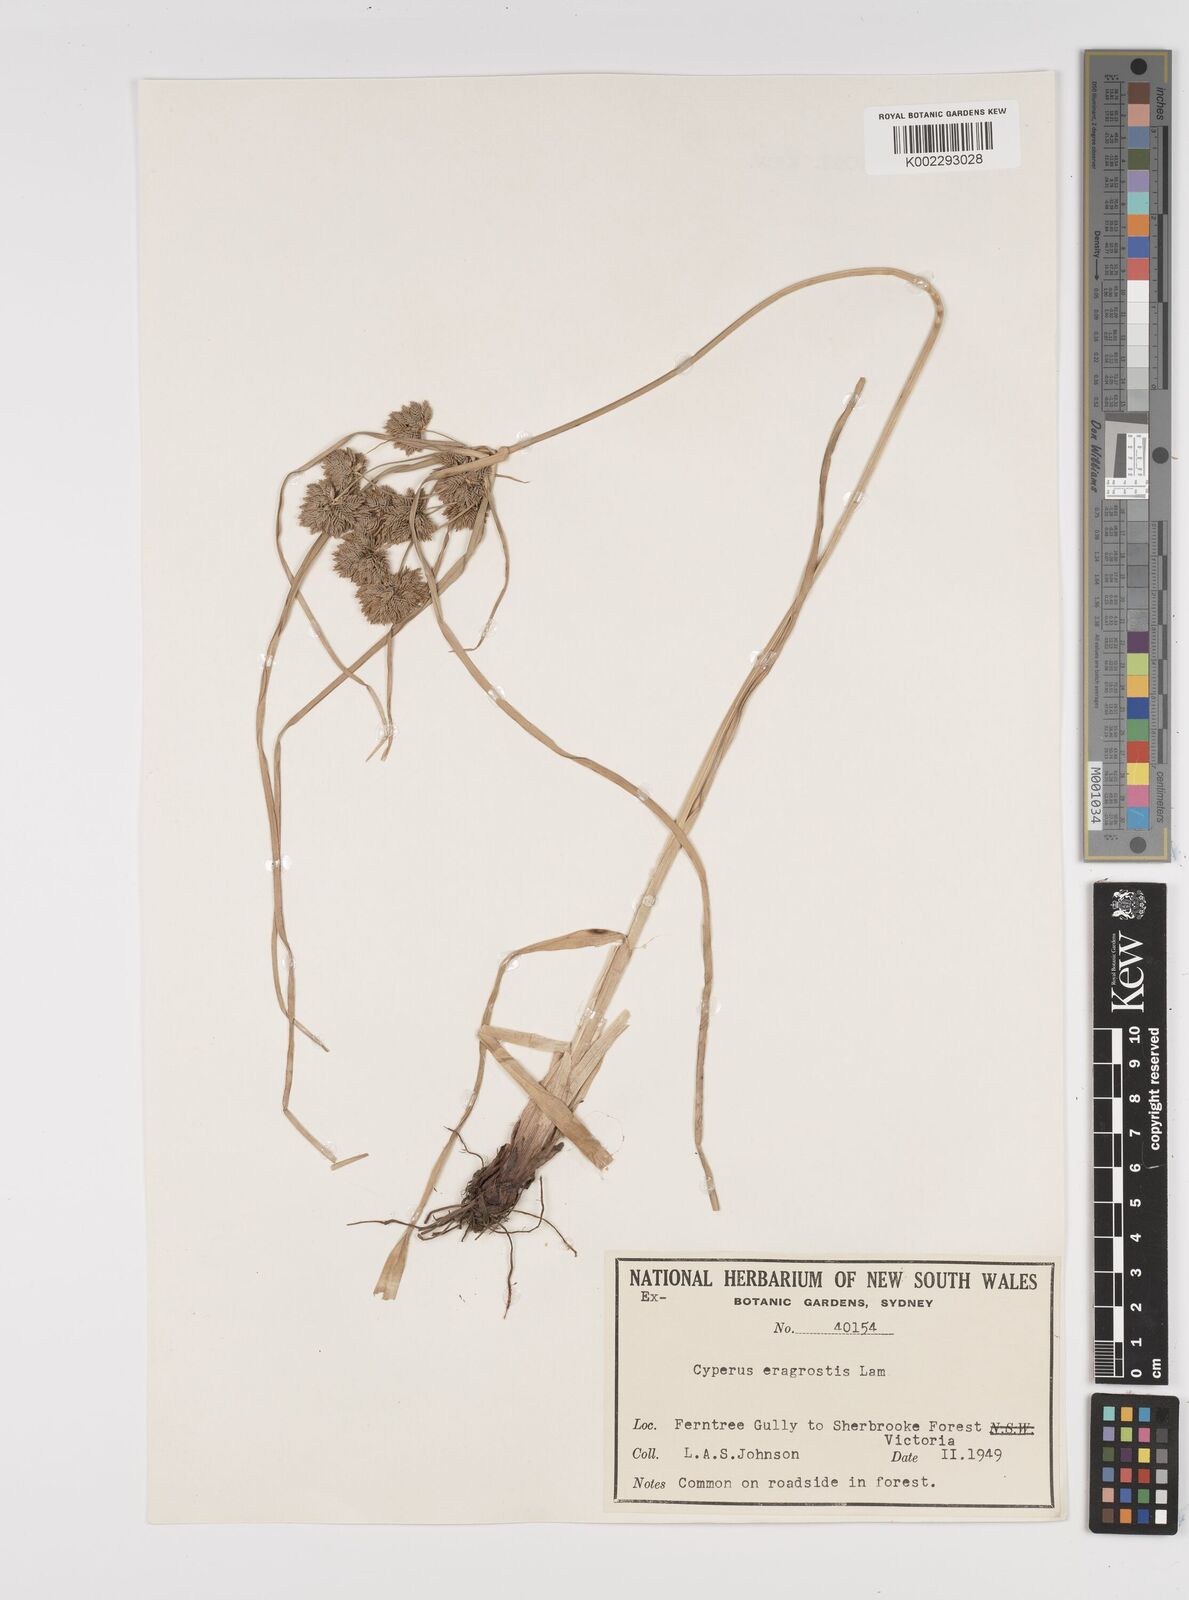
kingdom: Plantae
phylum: Tracheophyta
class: Liliopsida
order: Poales
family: Cyperaceae
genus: Cyperus
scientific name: Cyperus eragrostis
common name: Tall flatsedge
